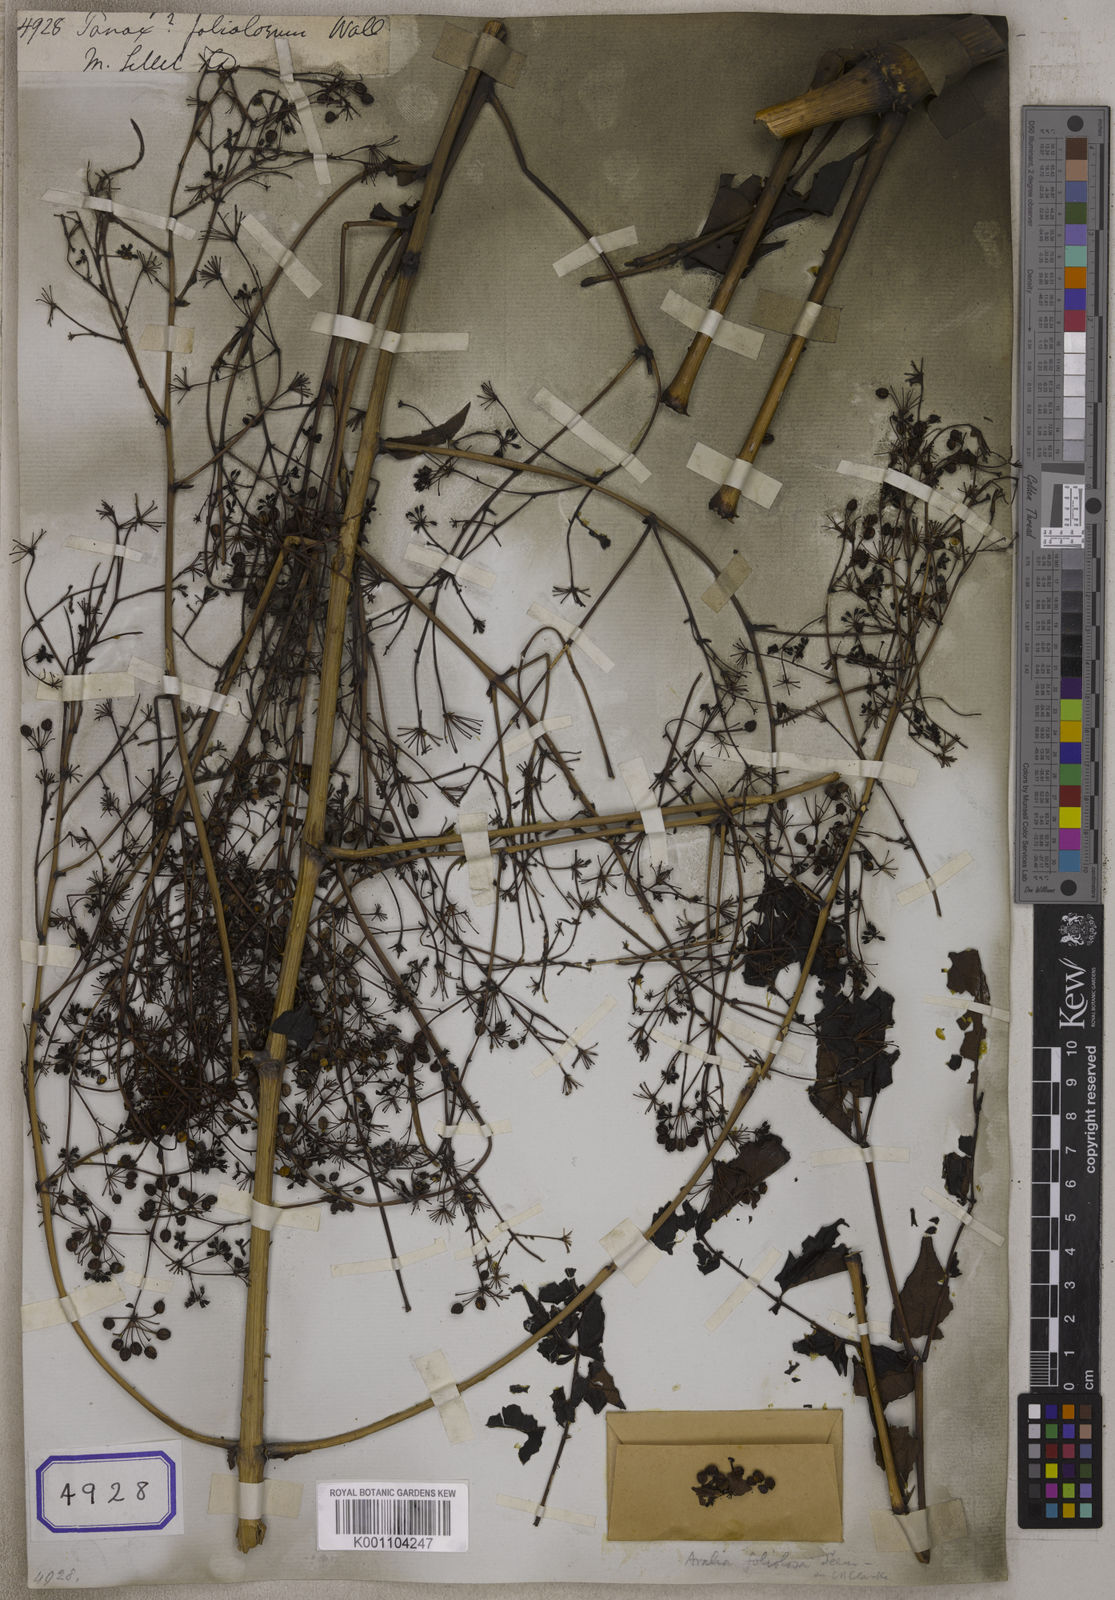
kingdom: Plantae
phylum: Tracheophyta
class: Magnoliopsida
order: Apiales
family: Araliaceae
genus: Aralia
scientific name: Aralia foliolosa
